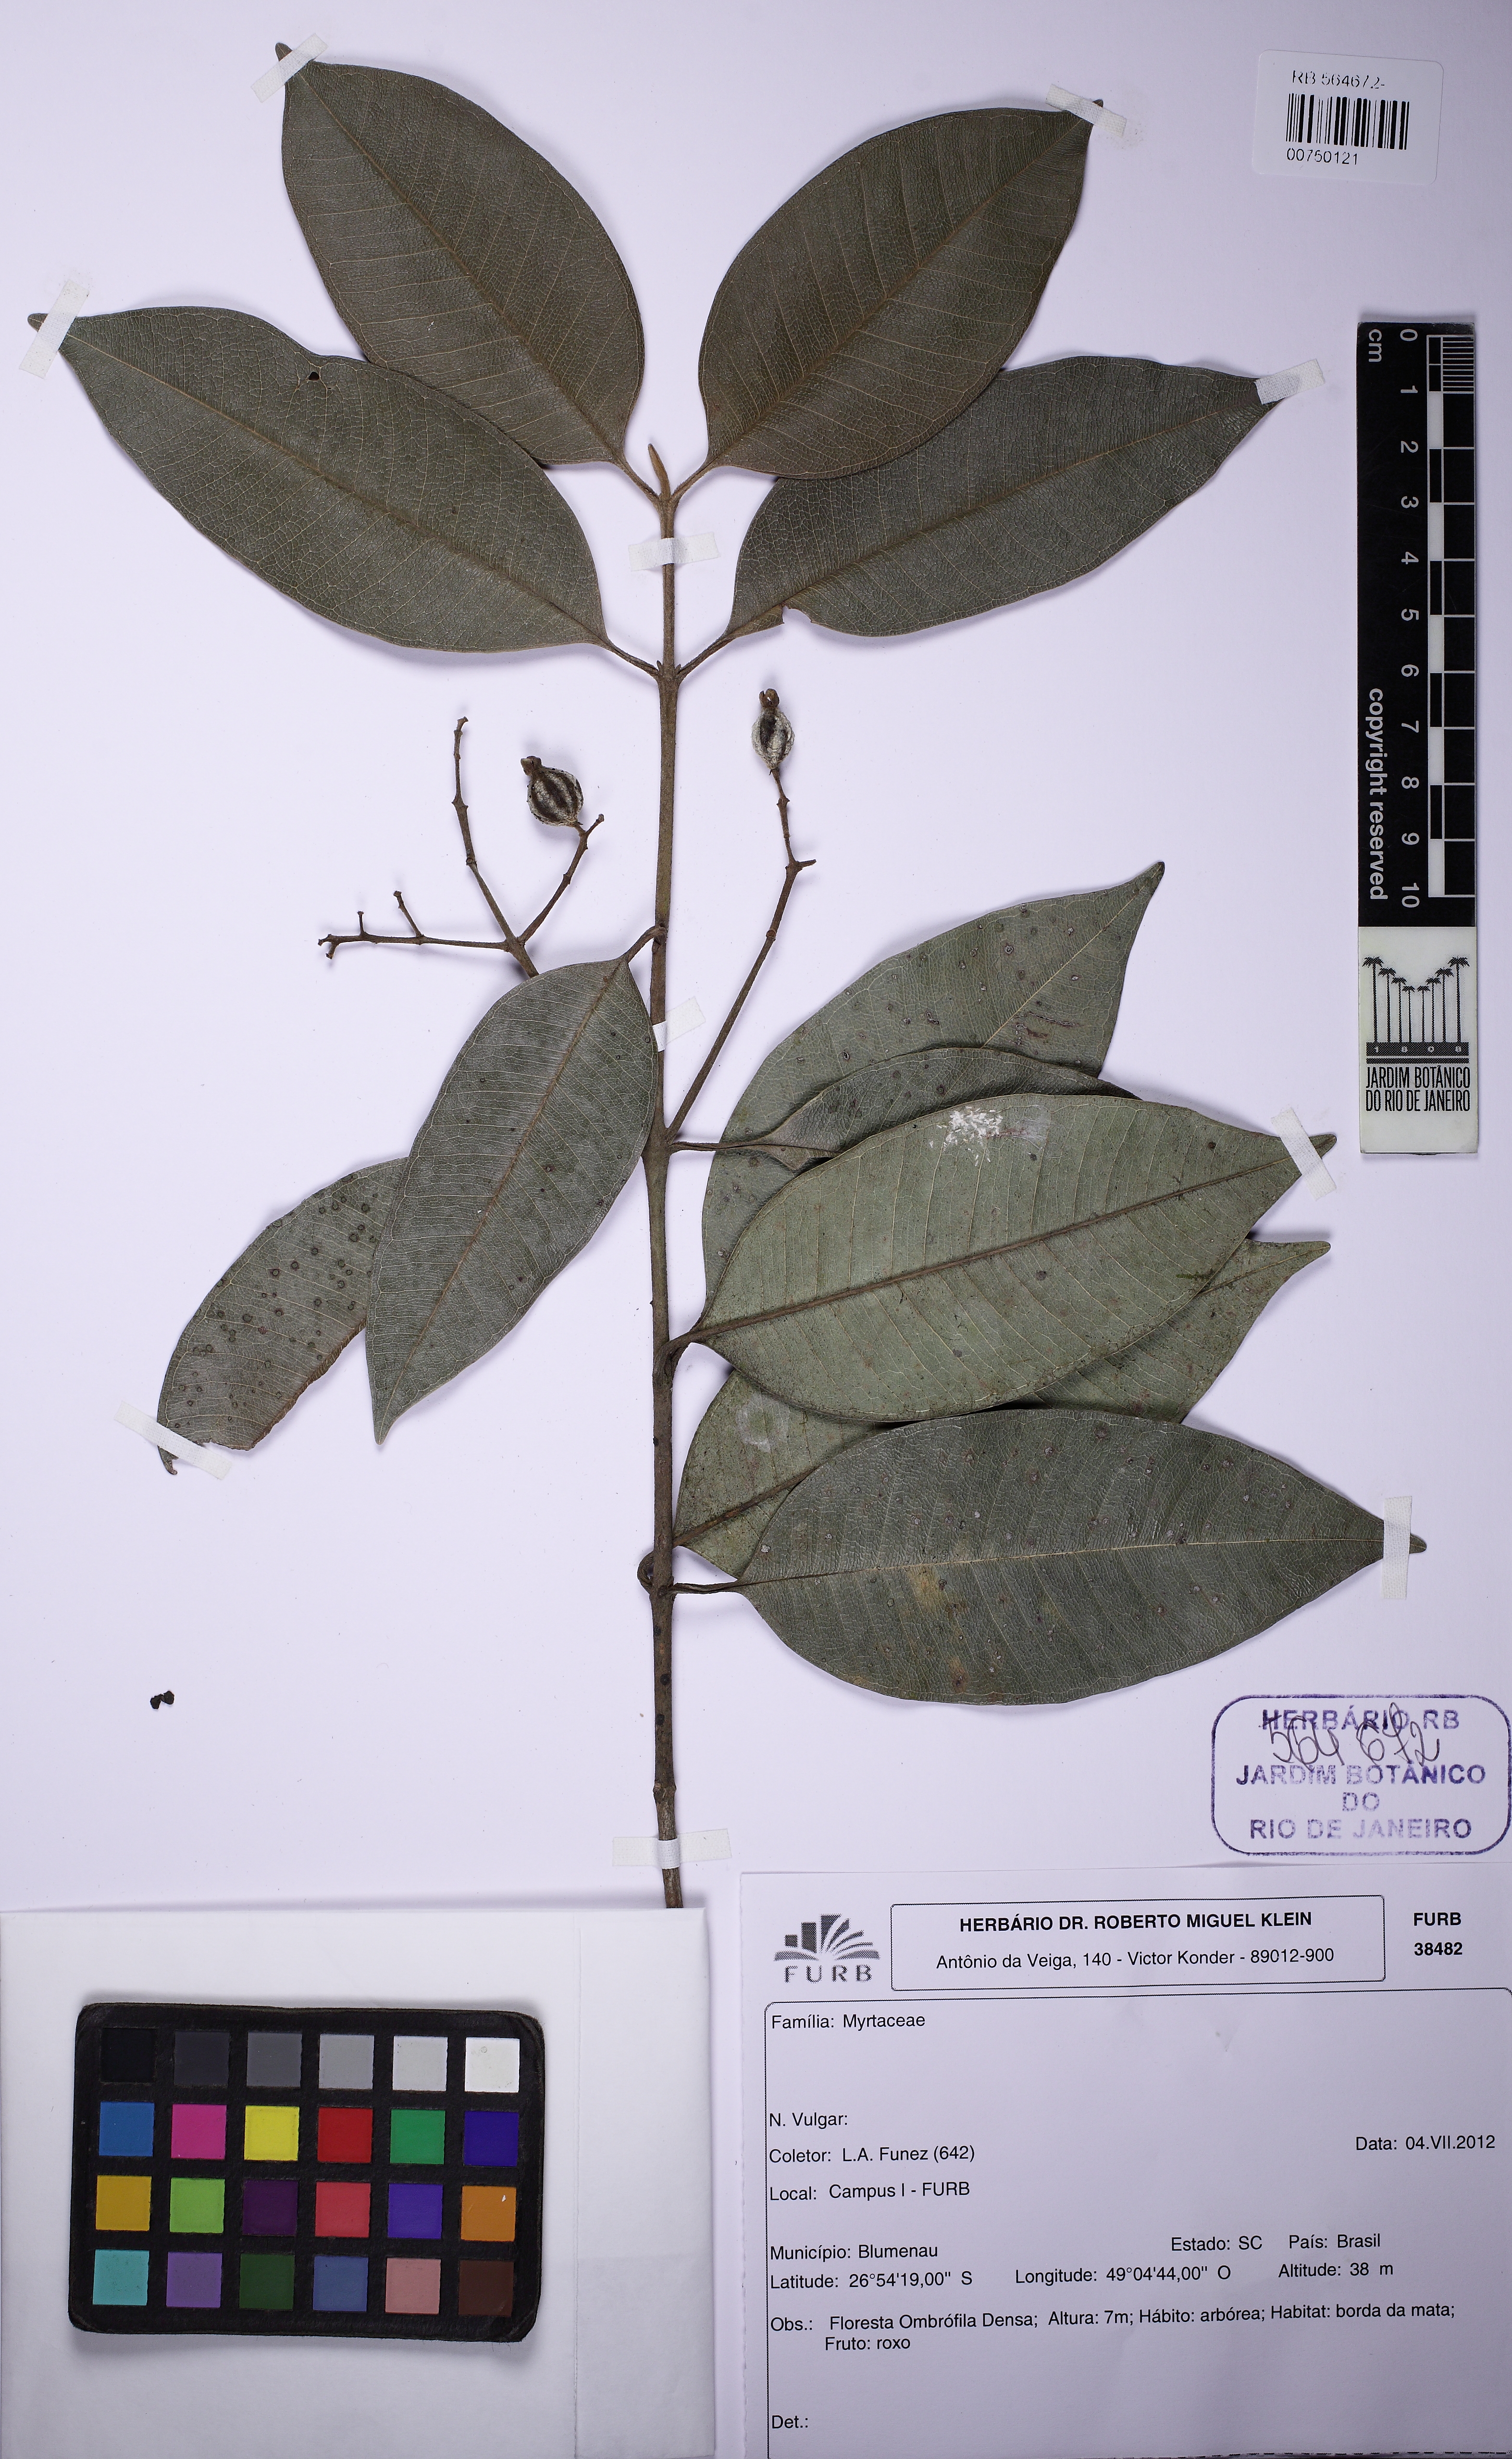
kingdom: Plantae
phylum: Tracheophyta
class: Magnoliopsida
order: Myrtales
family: Myrtaceae
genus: Myrcia
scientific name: Myrcia pubipetala
